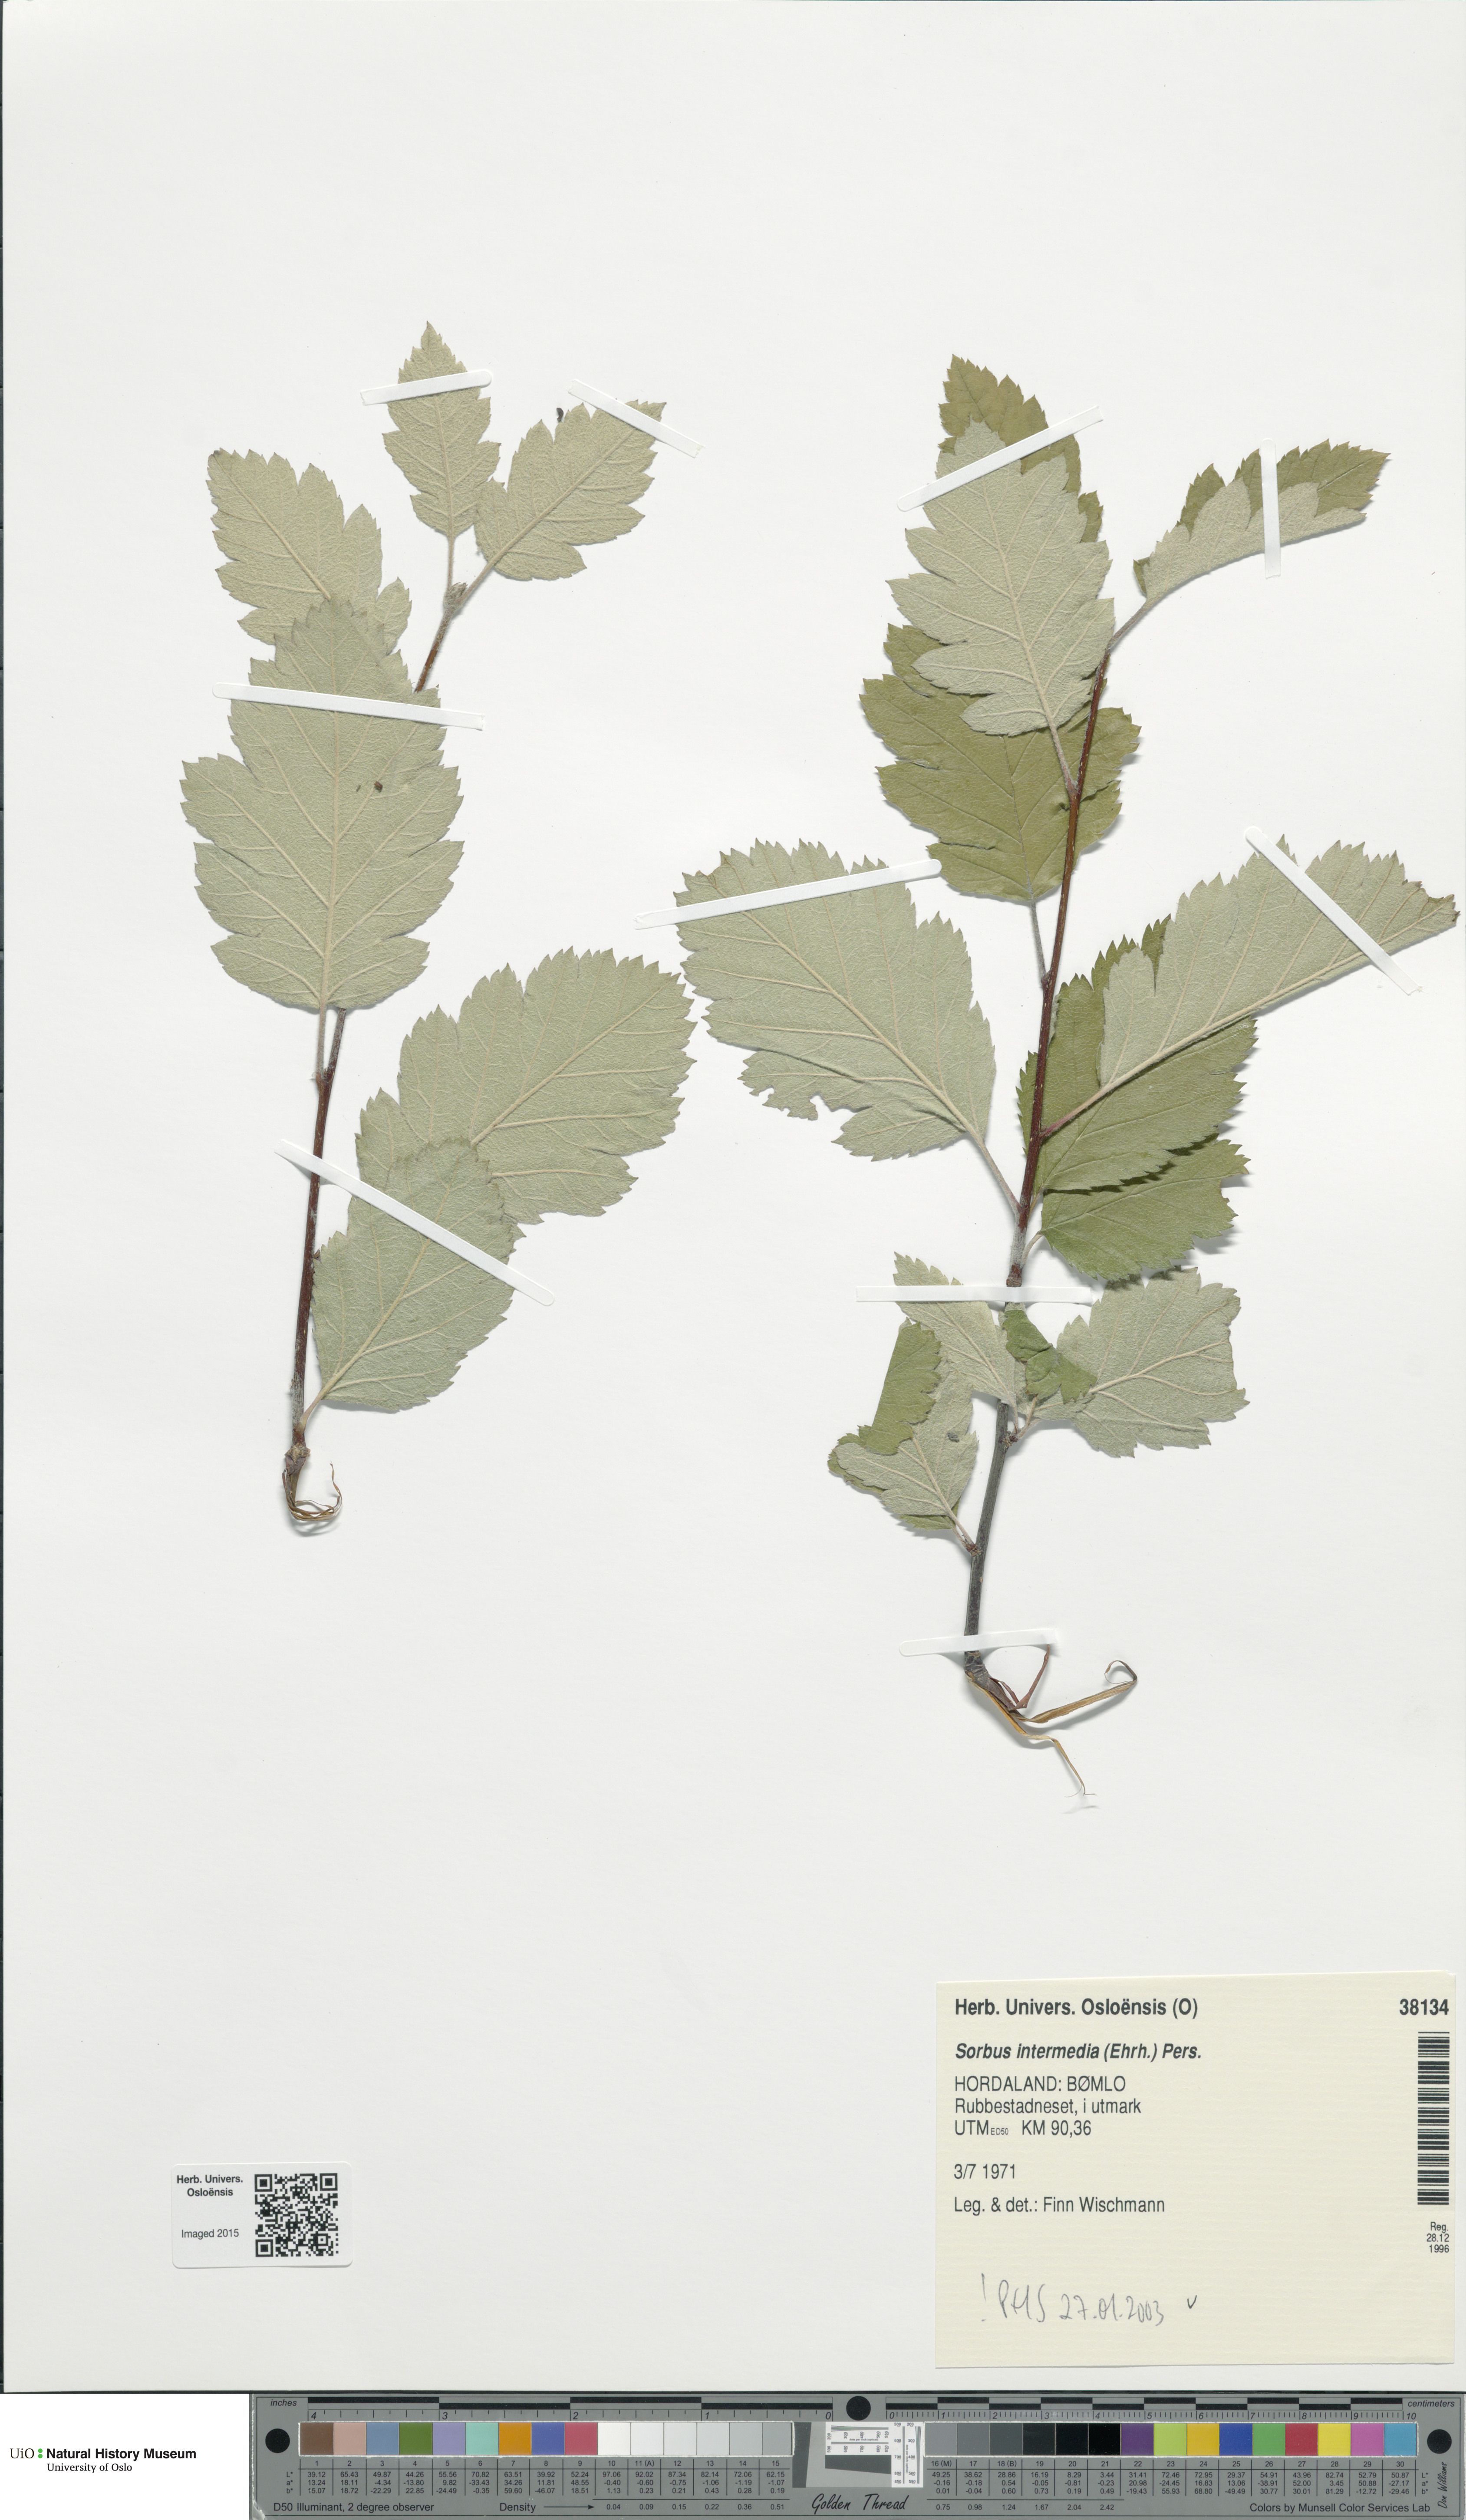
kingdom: Plantae
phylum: Tracheophyta
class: Magnoliopsida
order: Rosales
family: Rosaceae
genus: Scandosorbus
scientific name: Scandosorbus intermedia
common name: Swedish whitebeam
